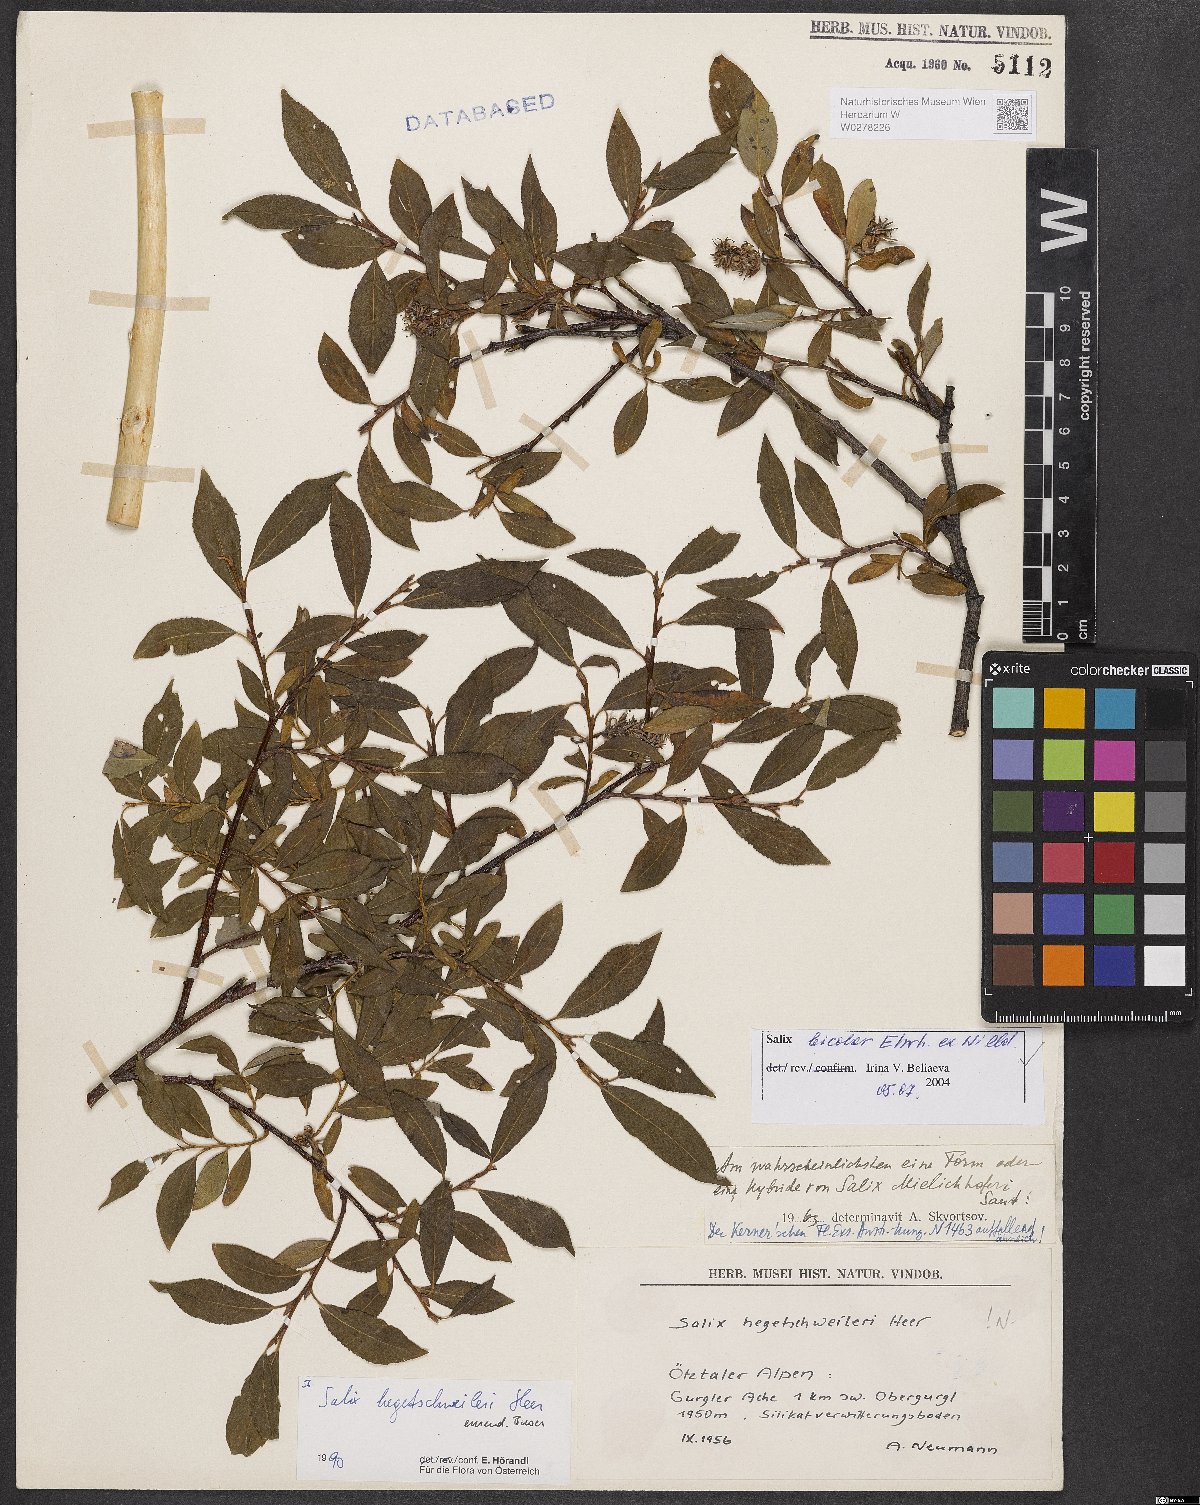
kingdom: Plantae
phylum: Tracheophyta
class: Magnoliopsida
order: Malpighiales
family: Salicaceae
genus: Salix
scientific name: Salix bicolor
